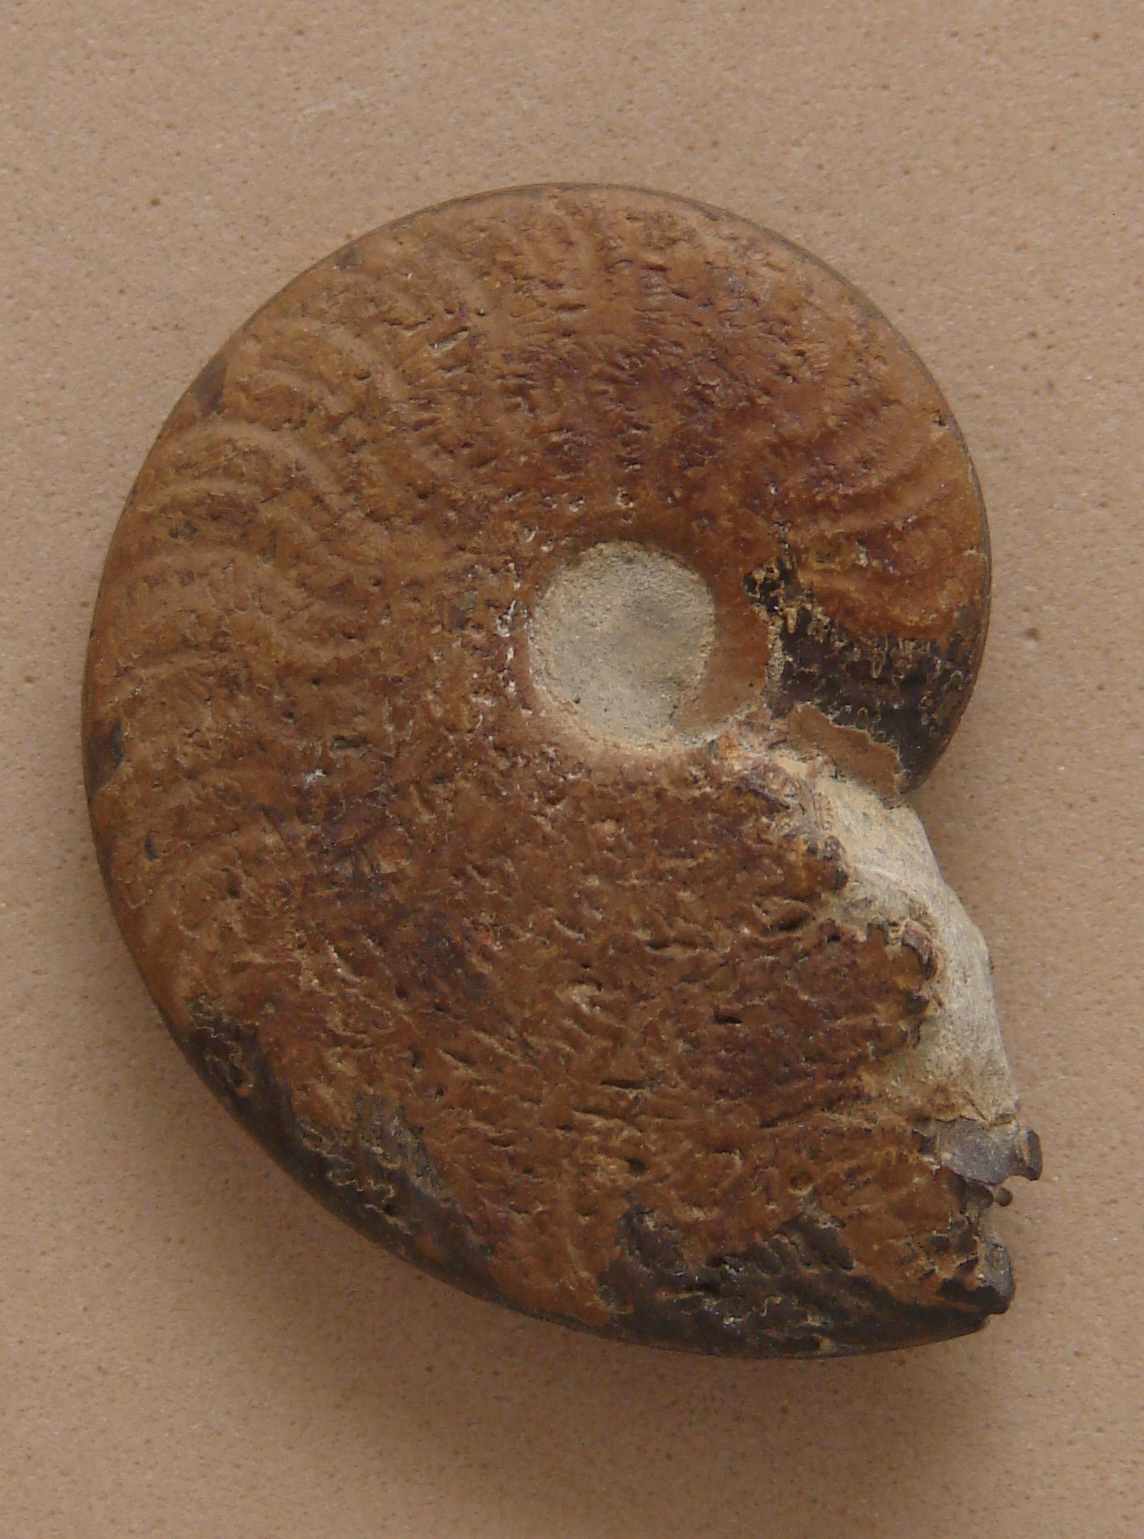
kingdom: Animalia
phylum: Mollusca
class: Cephalopoda
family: Hildoceratidae
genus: Polyplectus
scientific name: Polyplectus
